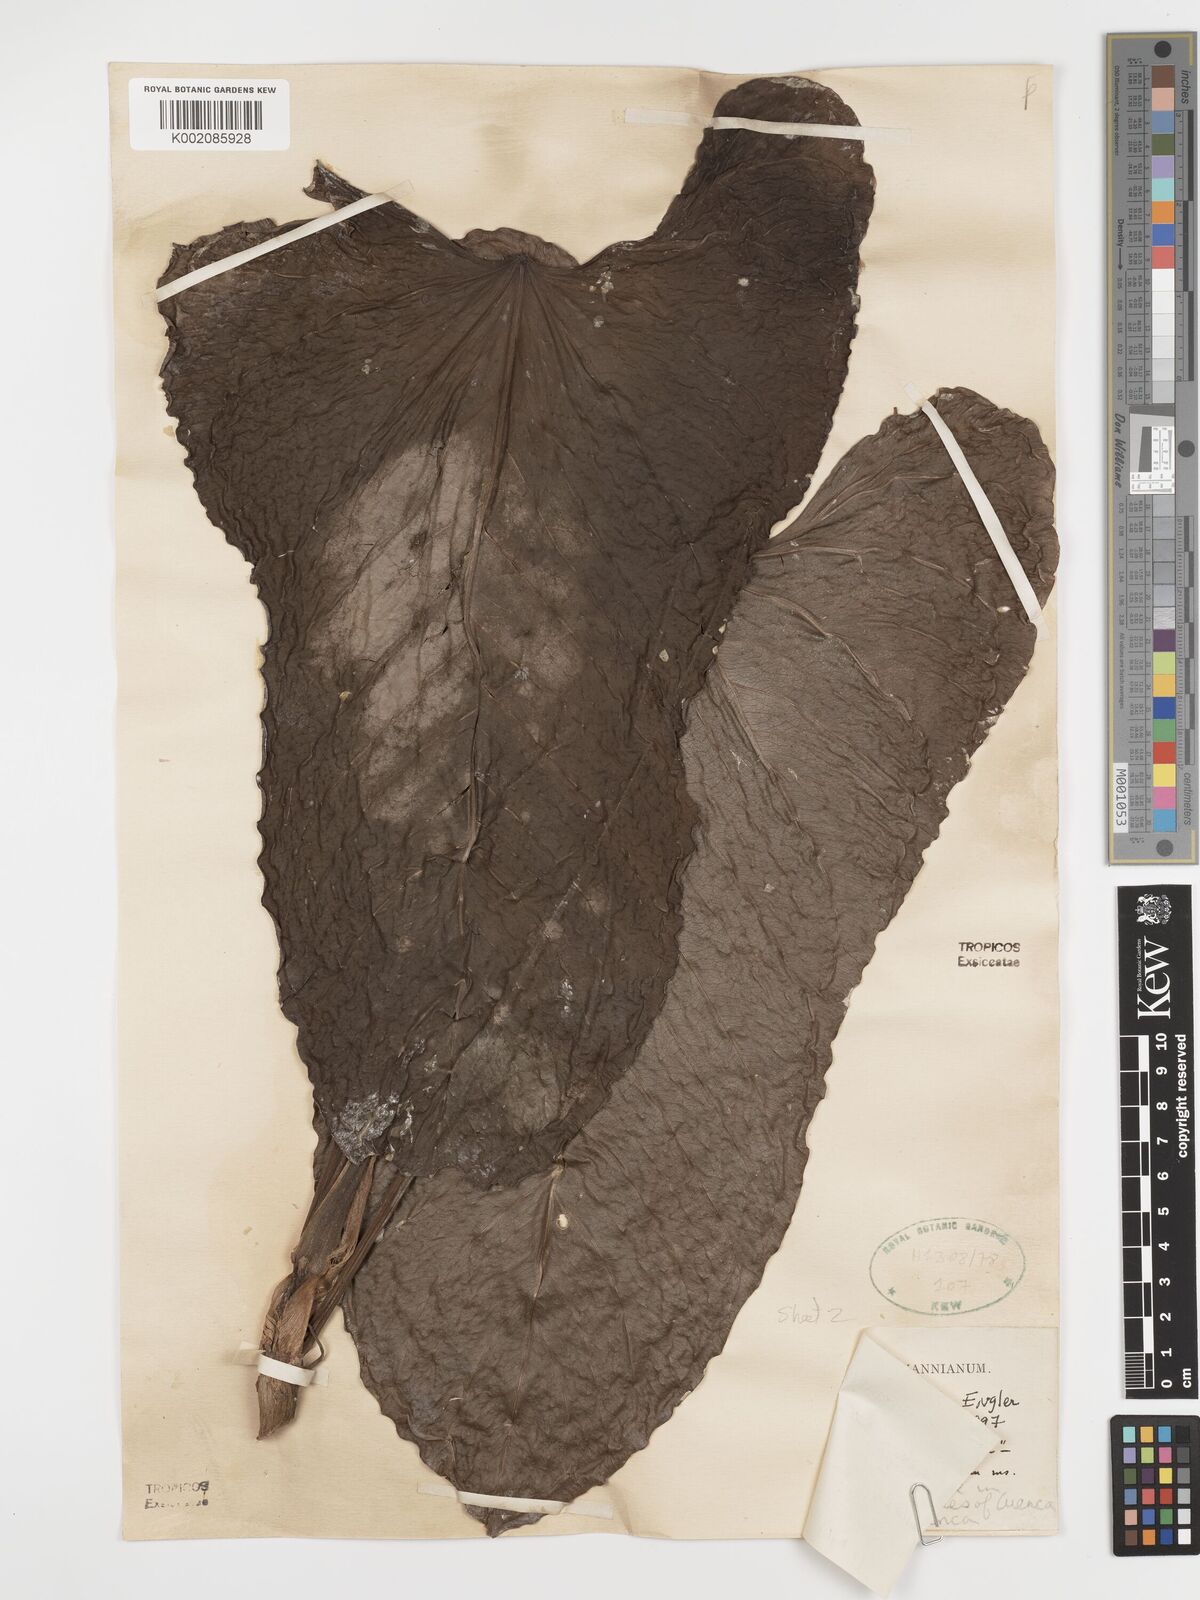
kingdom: Plantae
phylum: Tracheophyta
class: Liliopsida
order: Alismatales
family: Araceae
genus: Anthurium
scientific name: Anthurium nigrescens
